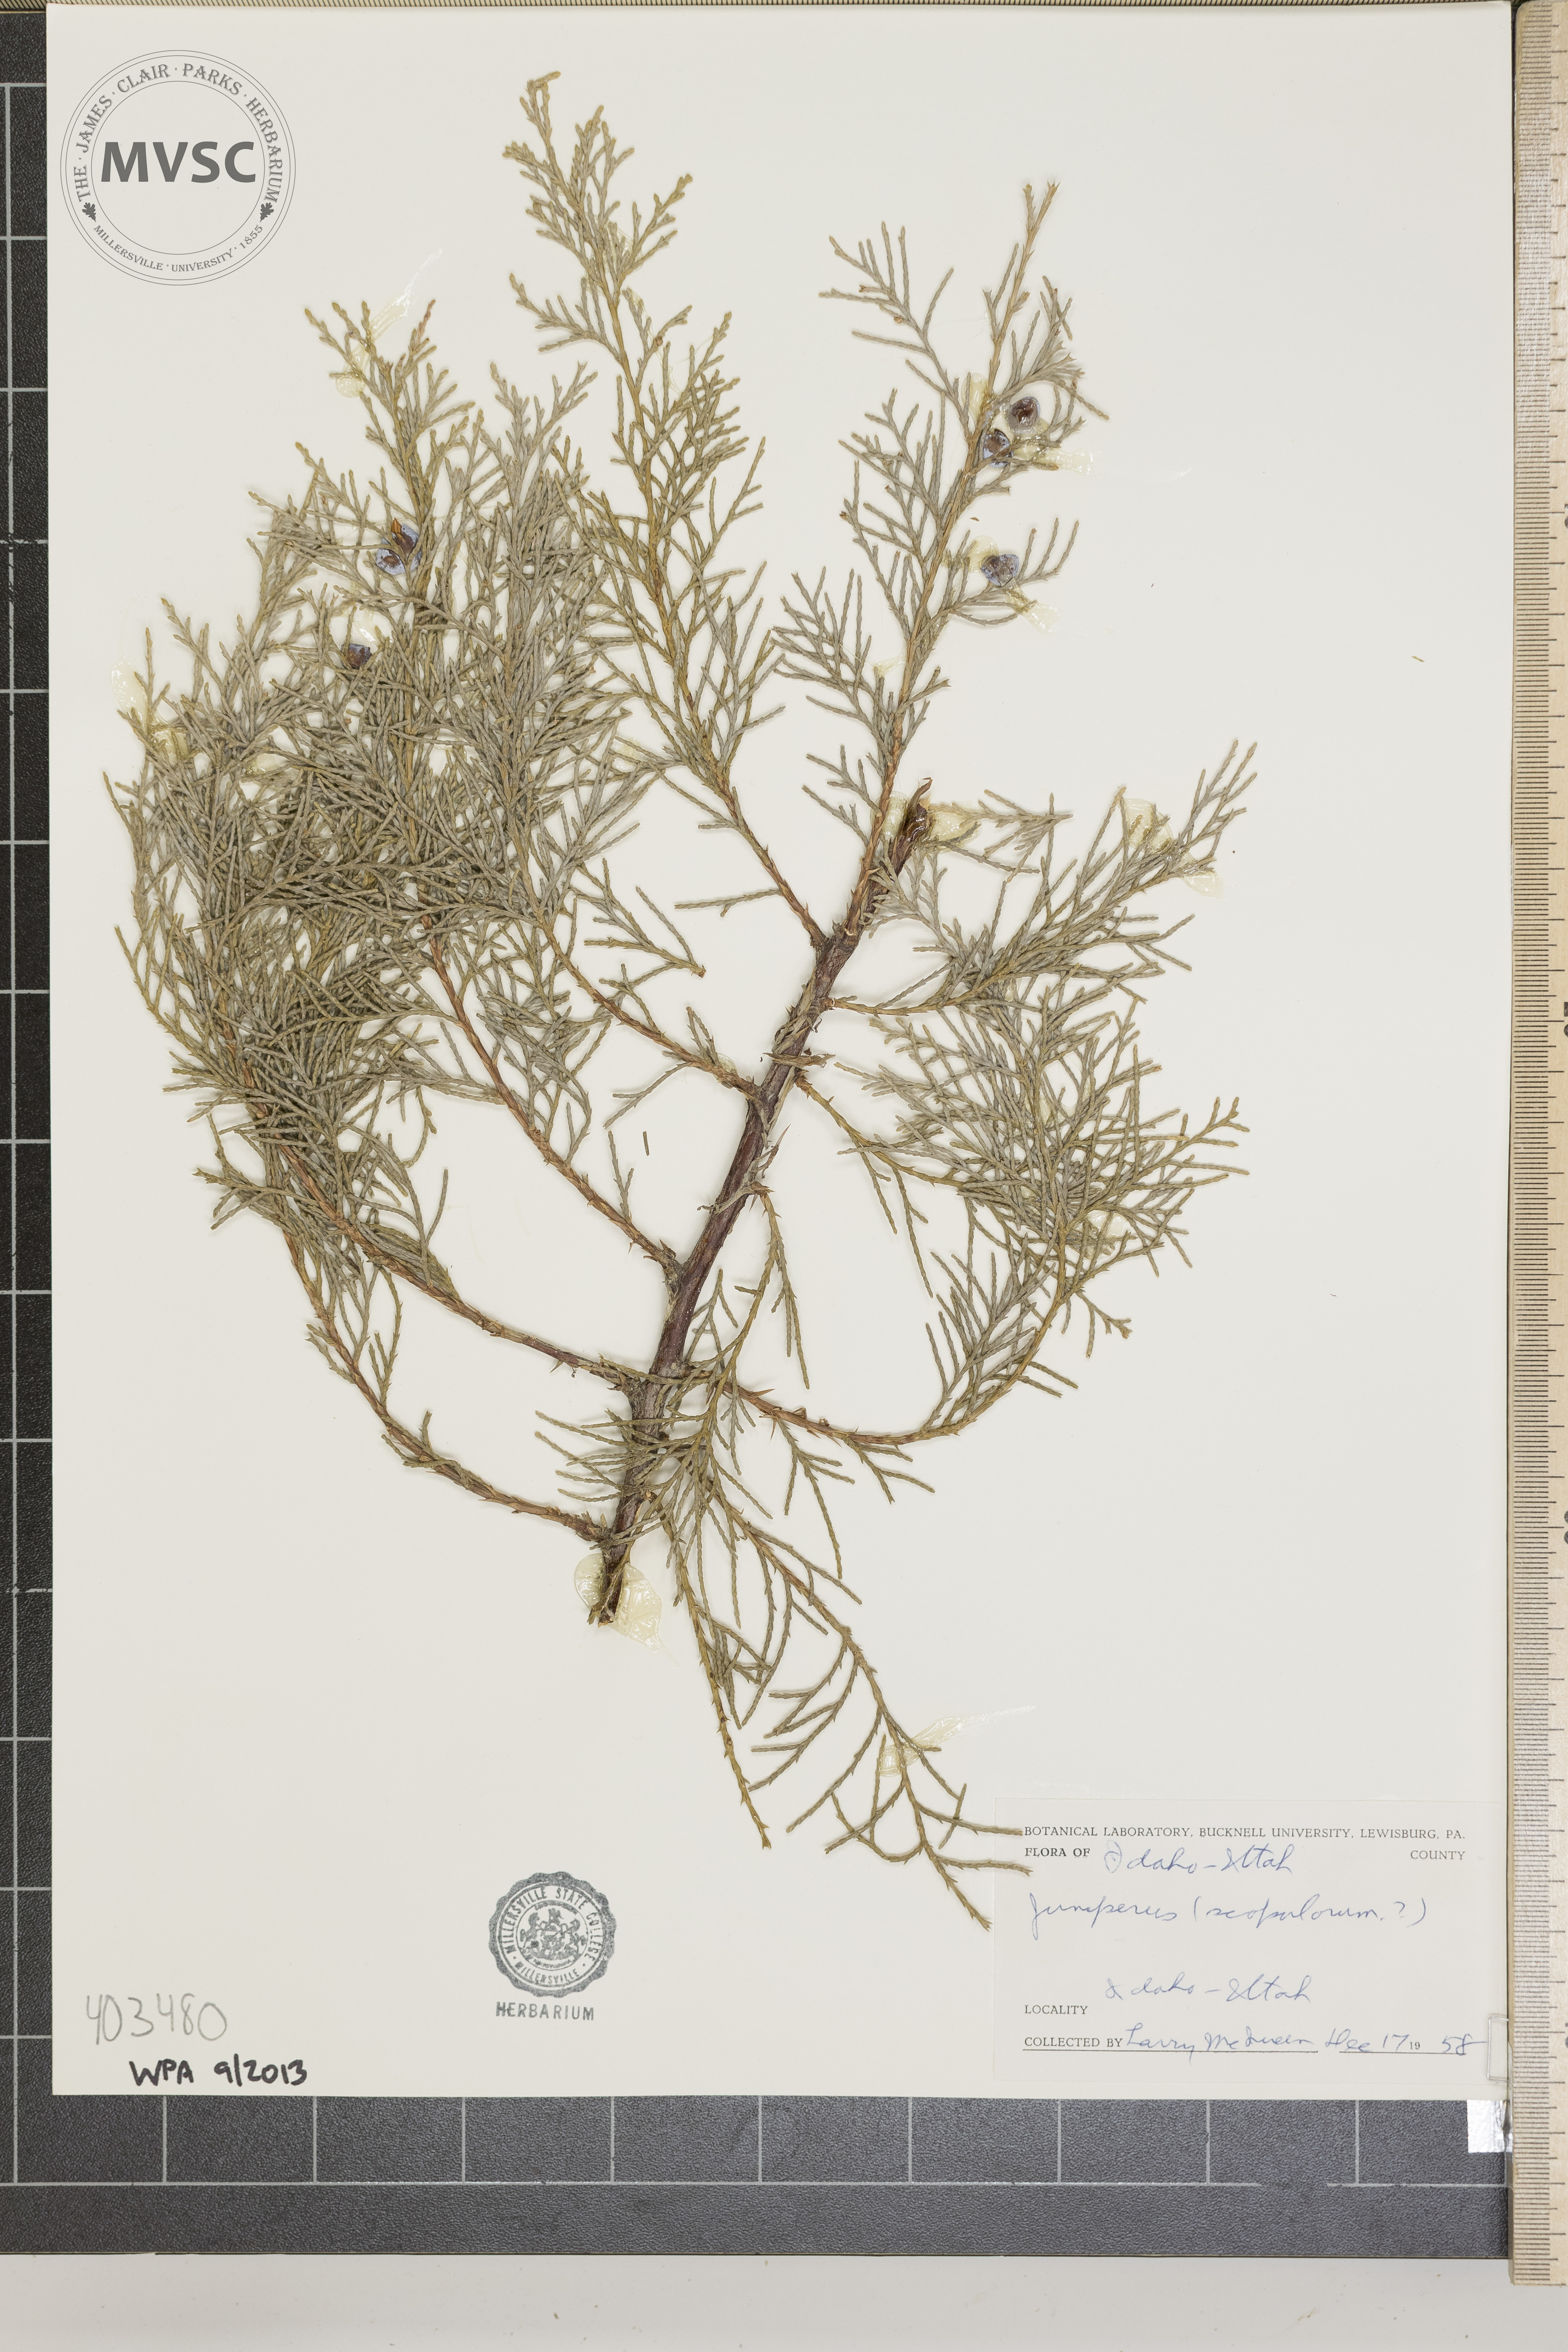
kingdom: Plantae
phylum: Tracheophyta
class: Pinopsida
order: Pinales
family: Cupressaceae
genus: Juniperus
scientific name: Juniperus scopulorum
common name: Rocky Mountain juniper
